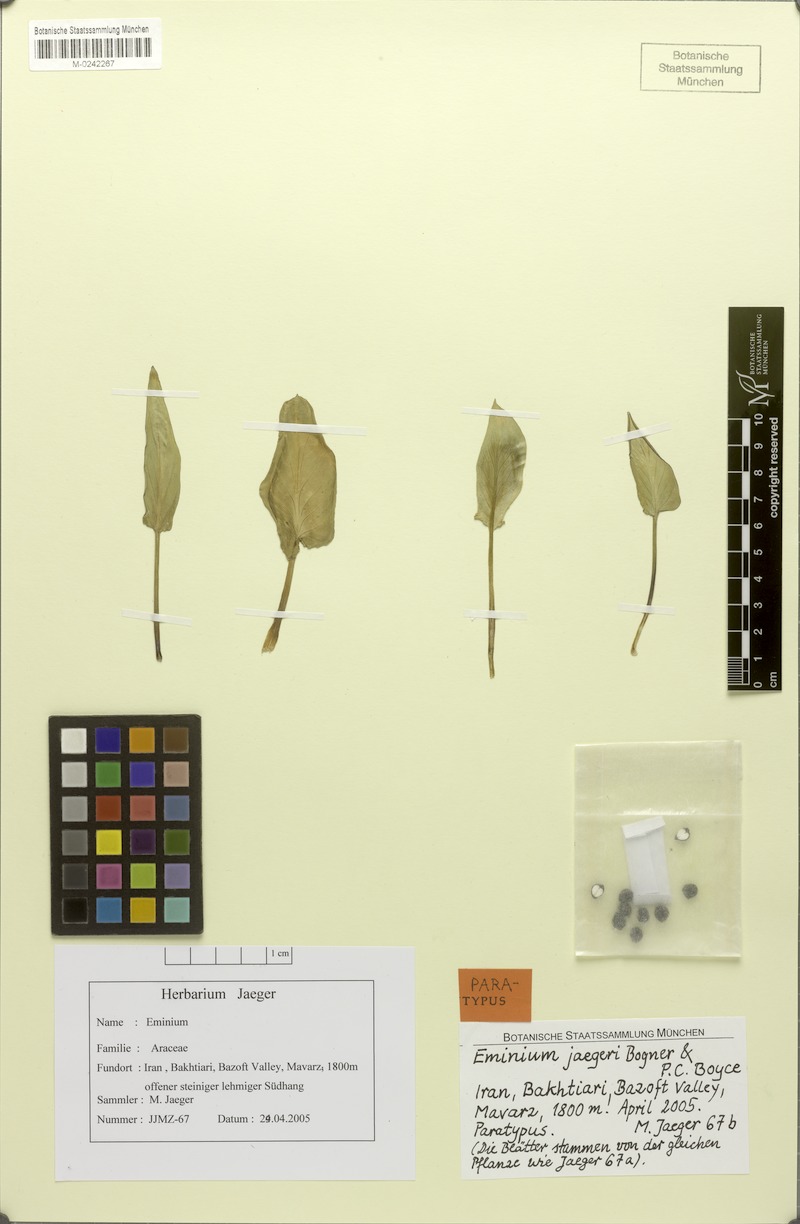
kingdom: Plantae
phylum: Tracheophyta
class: Liliopsida
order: Alismatales
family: Araceae
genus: Eminium
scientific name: Eminium jaegeri
